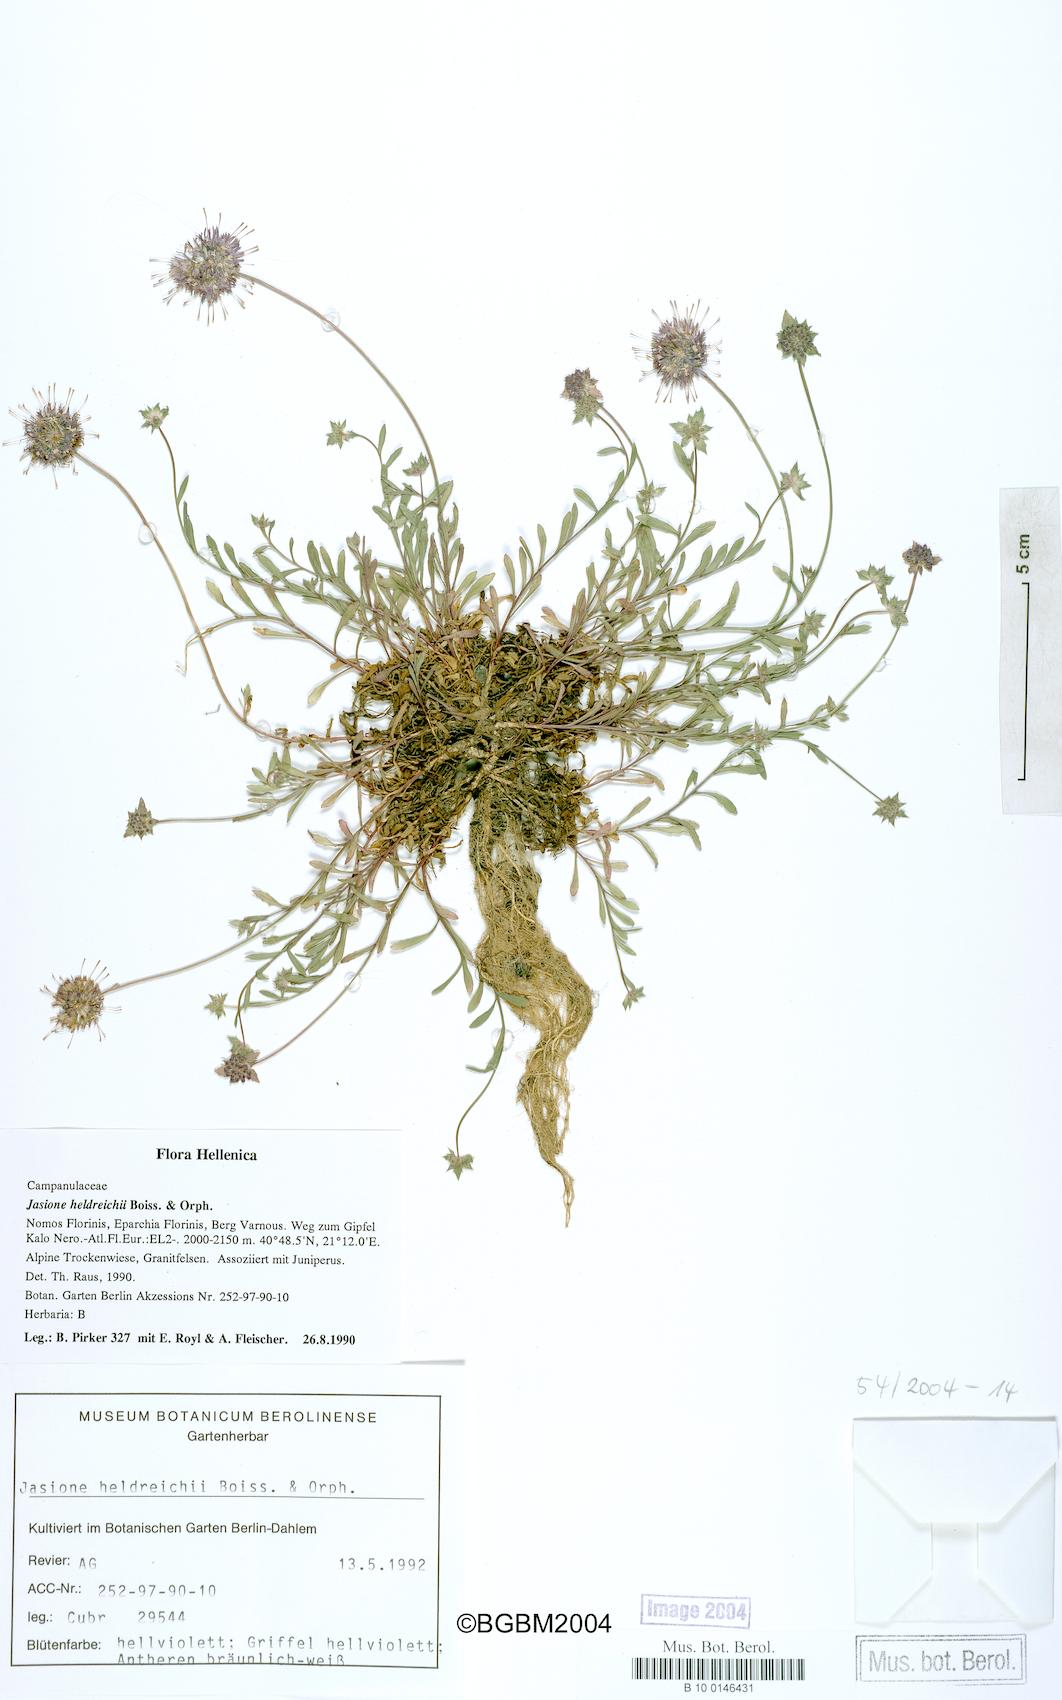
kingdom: Plantae
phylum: Tracheophyta
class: Magnoliopsida
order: Asterales
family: Campanulaceae
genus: Jasione
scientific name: Jasione heldreichii
